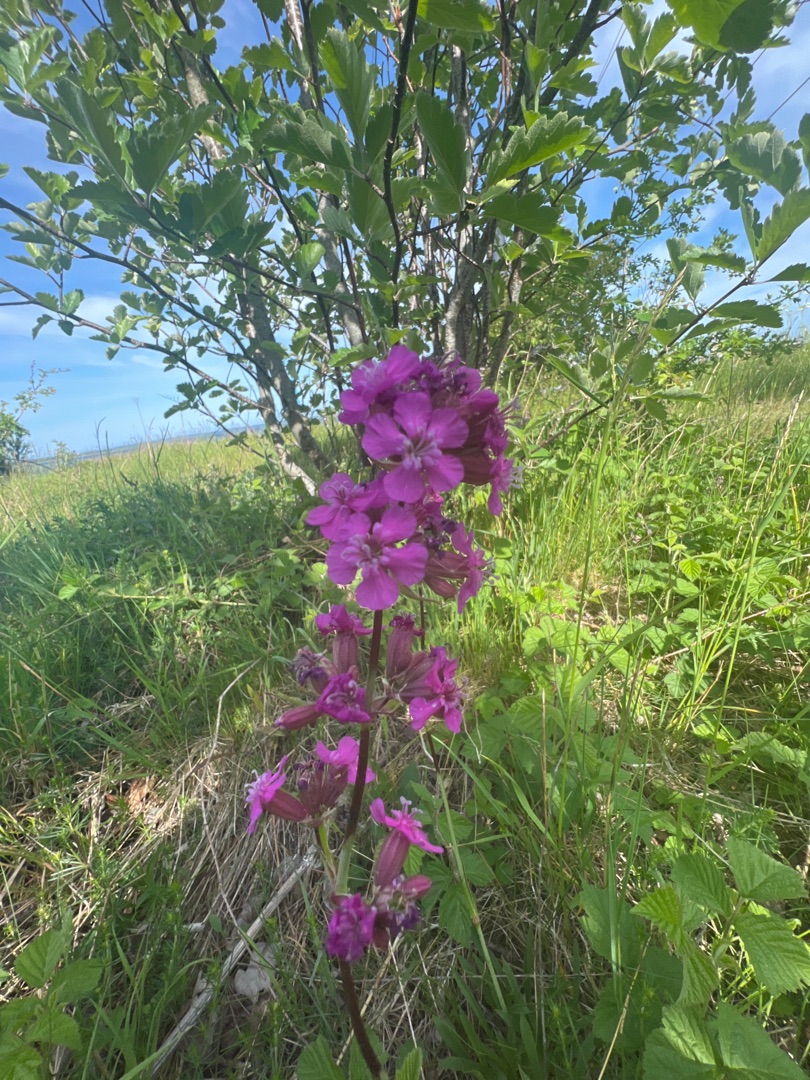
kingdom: Plantae
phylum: Tracheophyta
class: Magnoliopsida
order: Caryophyllales
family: Caryophyllaceae
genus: Viscaria
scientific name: Viscaria vulgaris
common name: Tjærenellike
